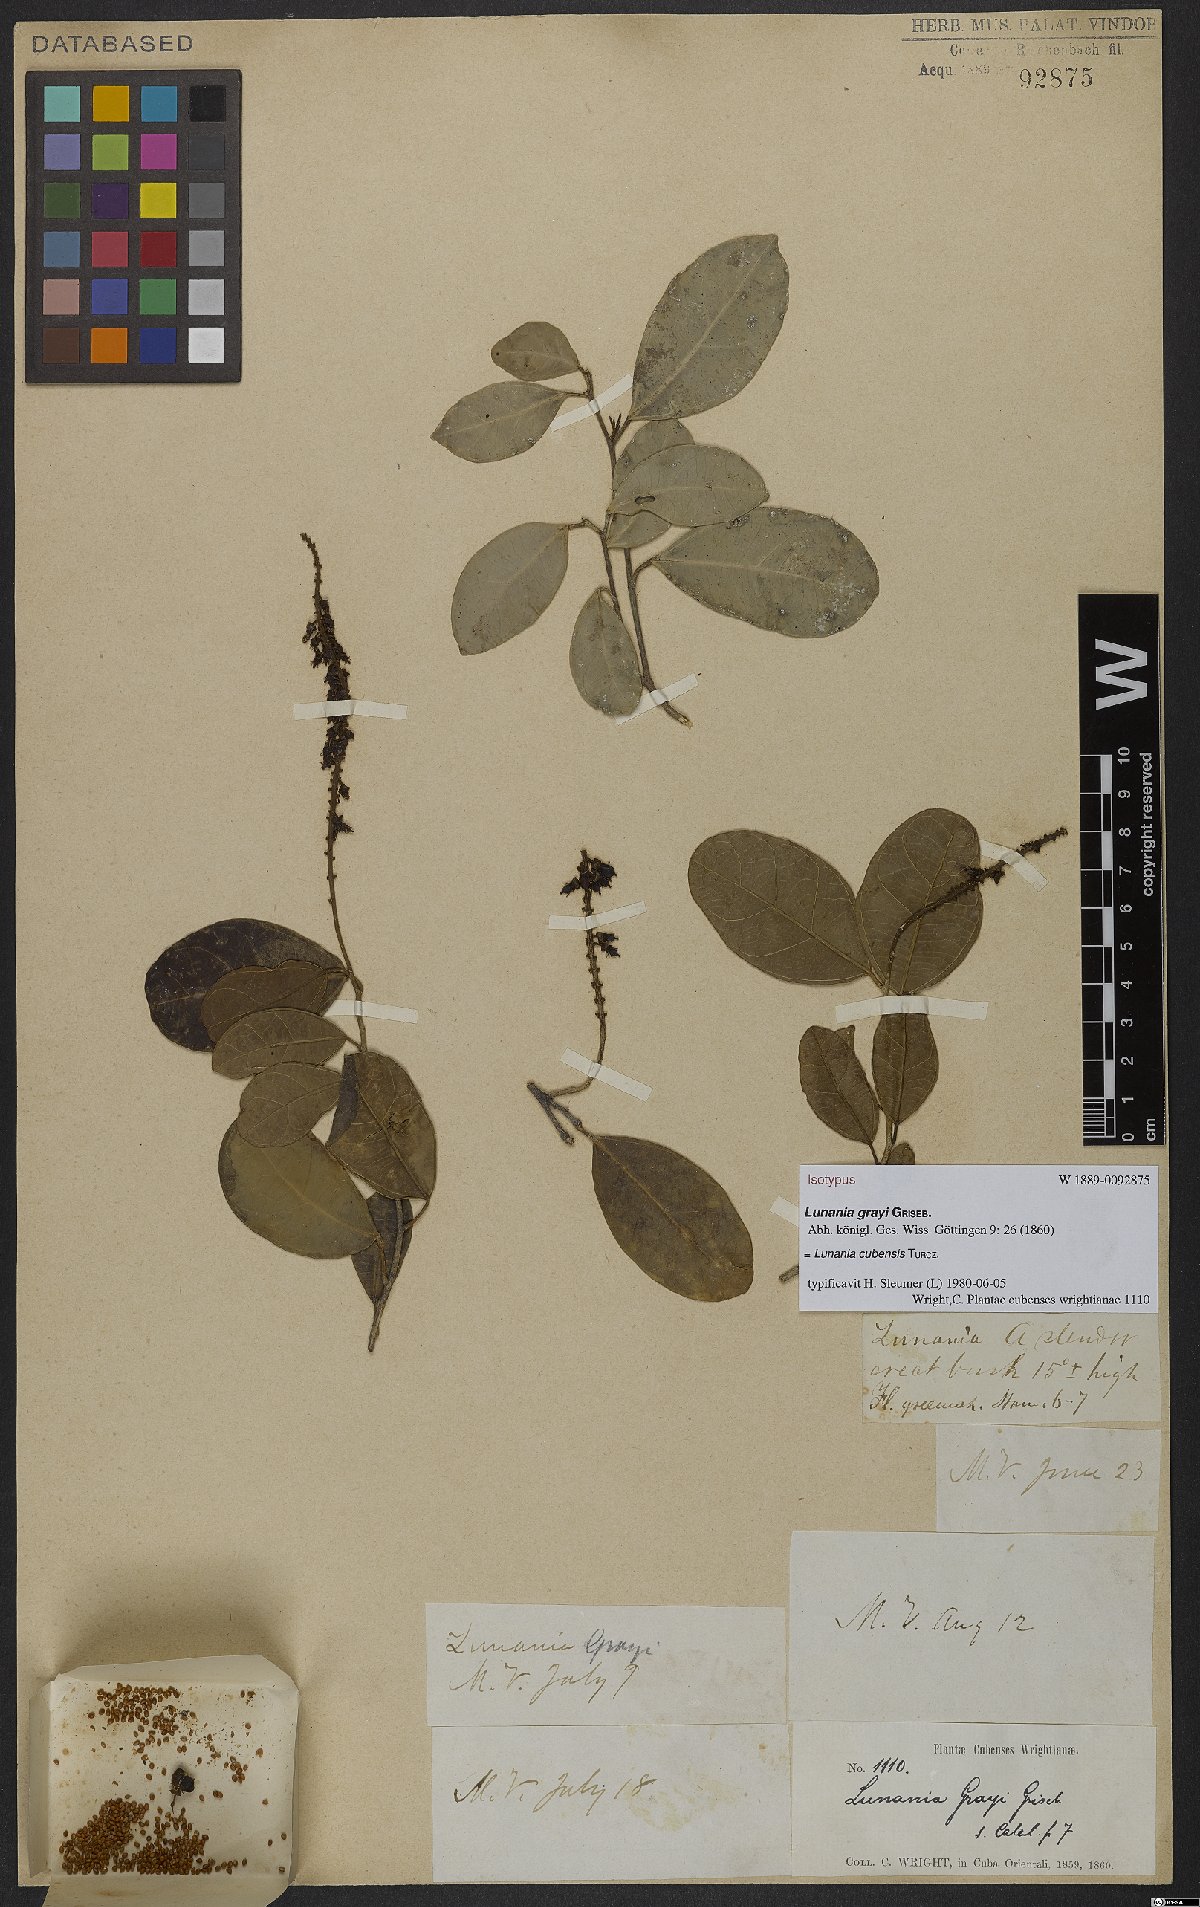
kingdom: Plantae
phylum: Tracheophyta
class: Magnoliopsida
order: Malpighiales
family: Salicaceae
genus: Lunania
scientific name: Lunania cubensis
